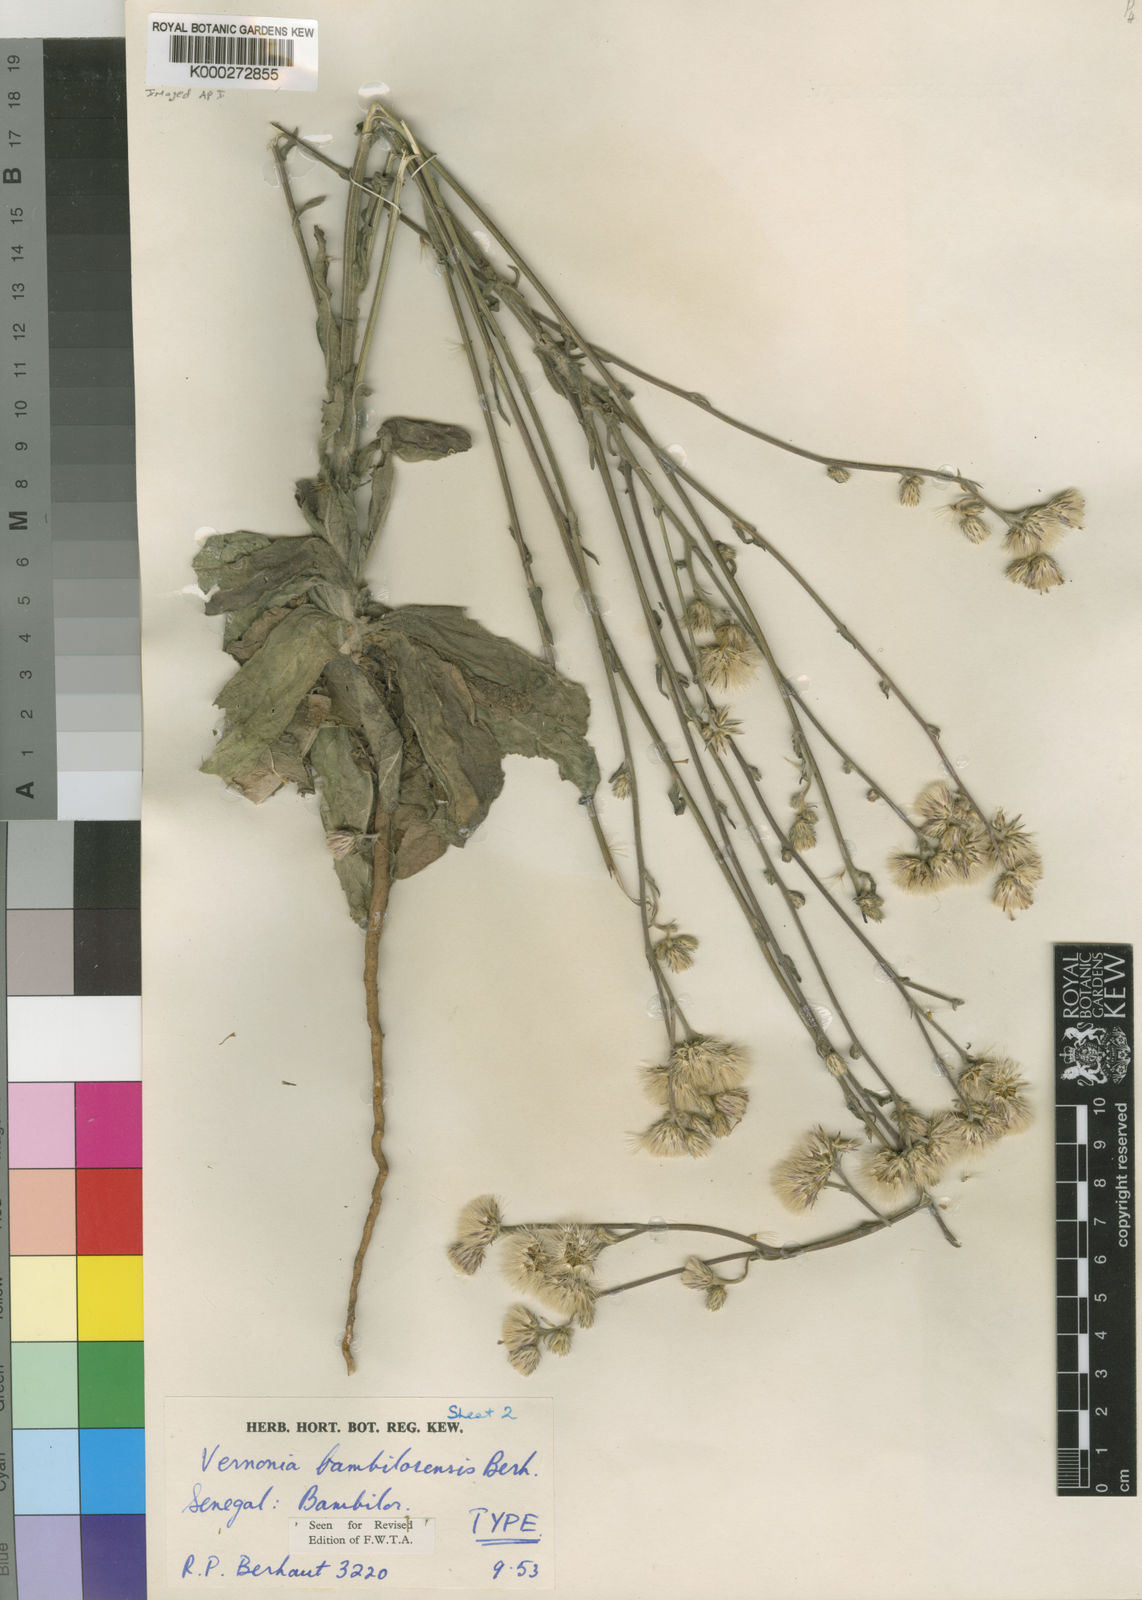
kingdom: Plantae
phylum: Tracheophyta
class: Magnoliopsida
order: Asterales
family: Asteraceae
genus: Vernonia
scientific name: Vernonia bambilorensis
